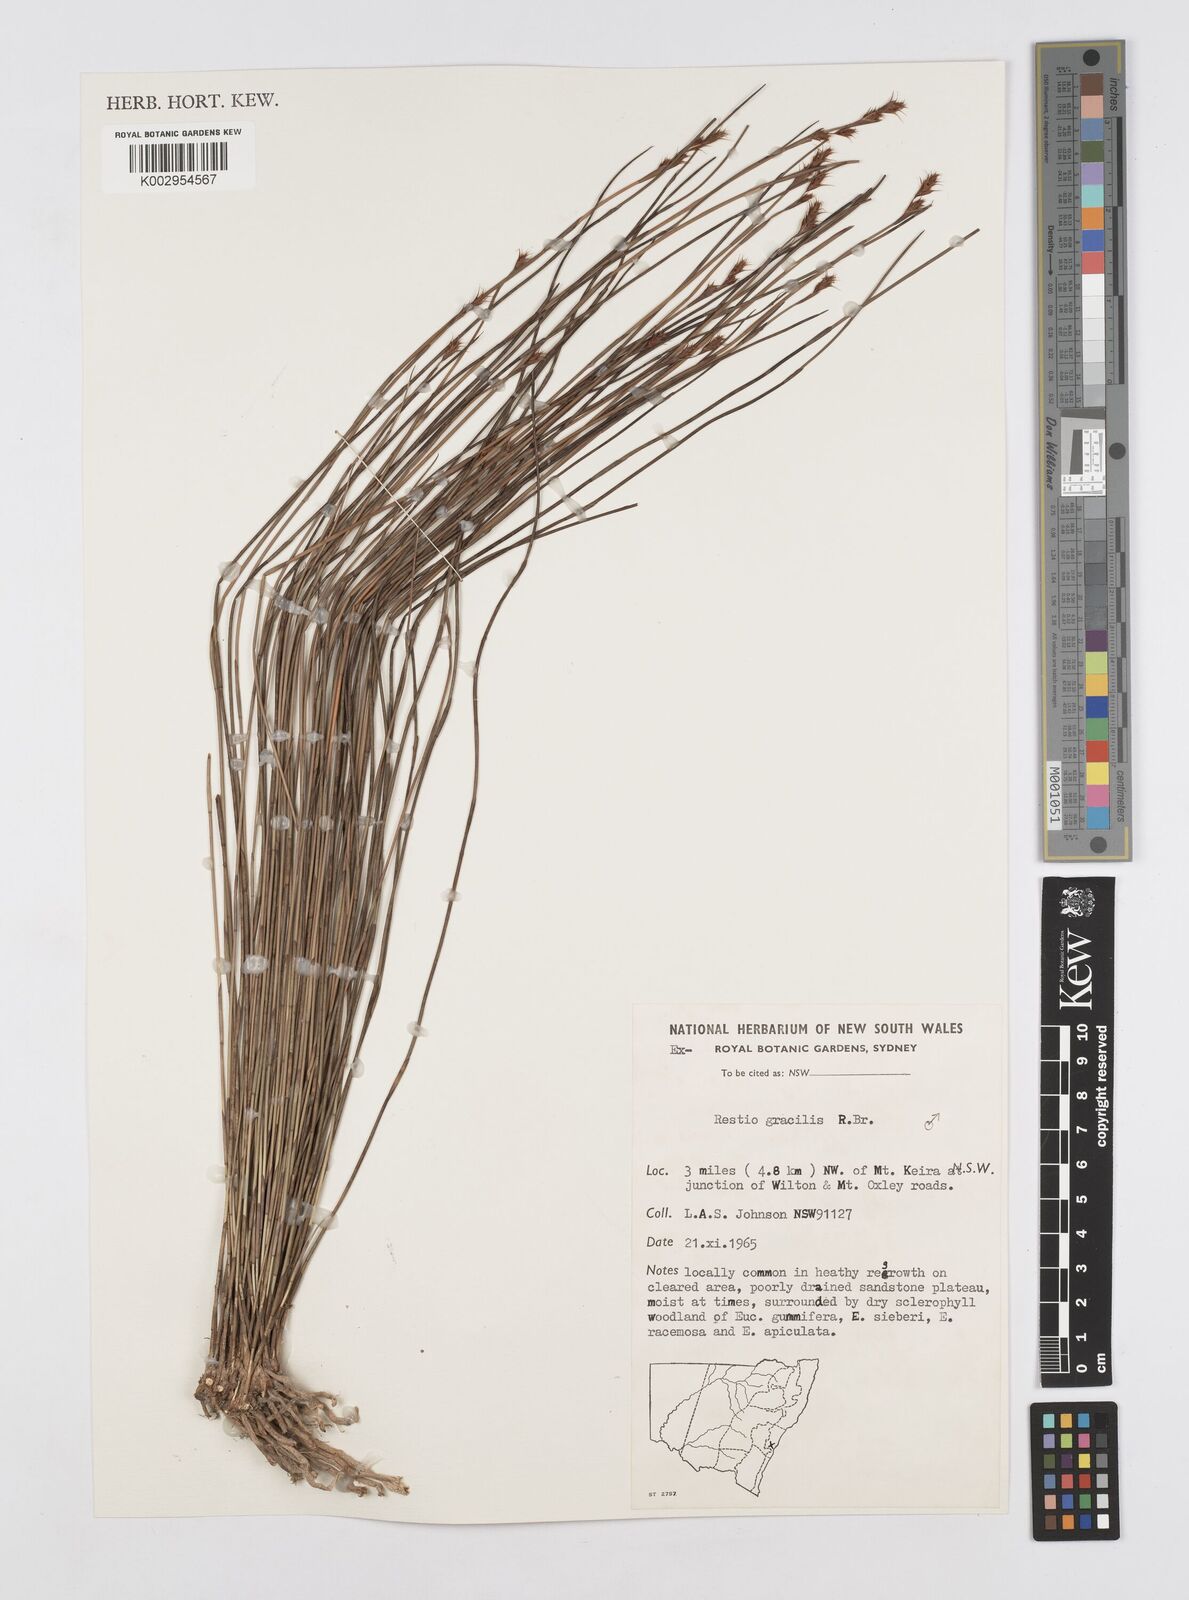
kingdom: Plantae
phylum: Tracheophyta
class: Liliopsida
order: Poales
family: Restionaceae
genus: Baloskion
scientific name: Baloskion gracile
